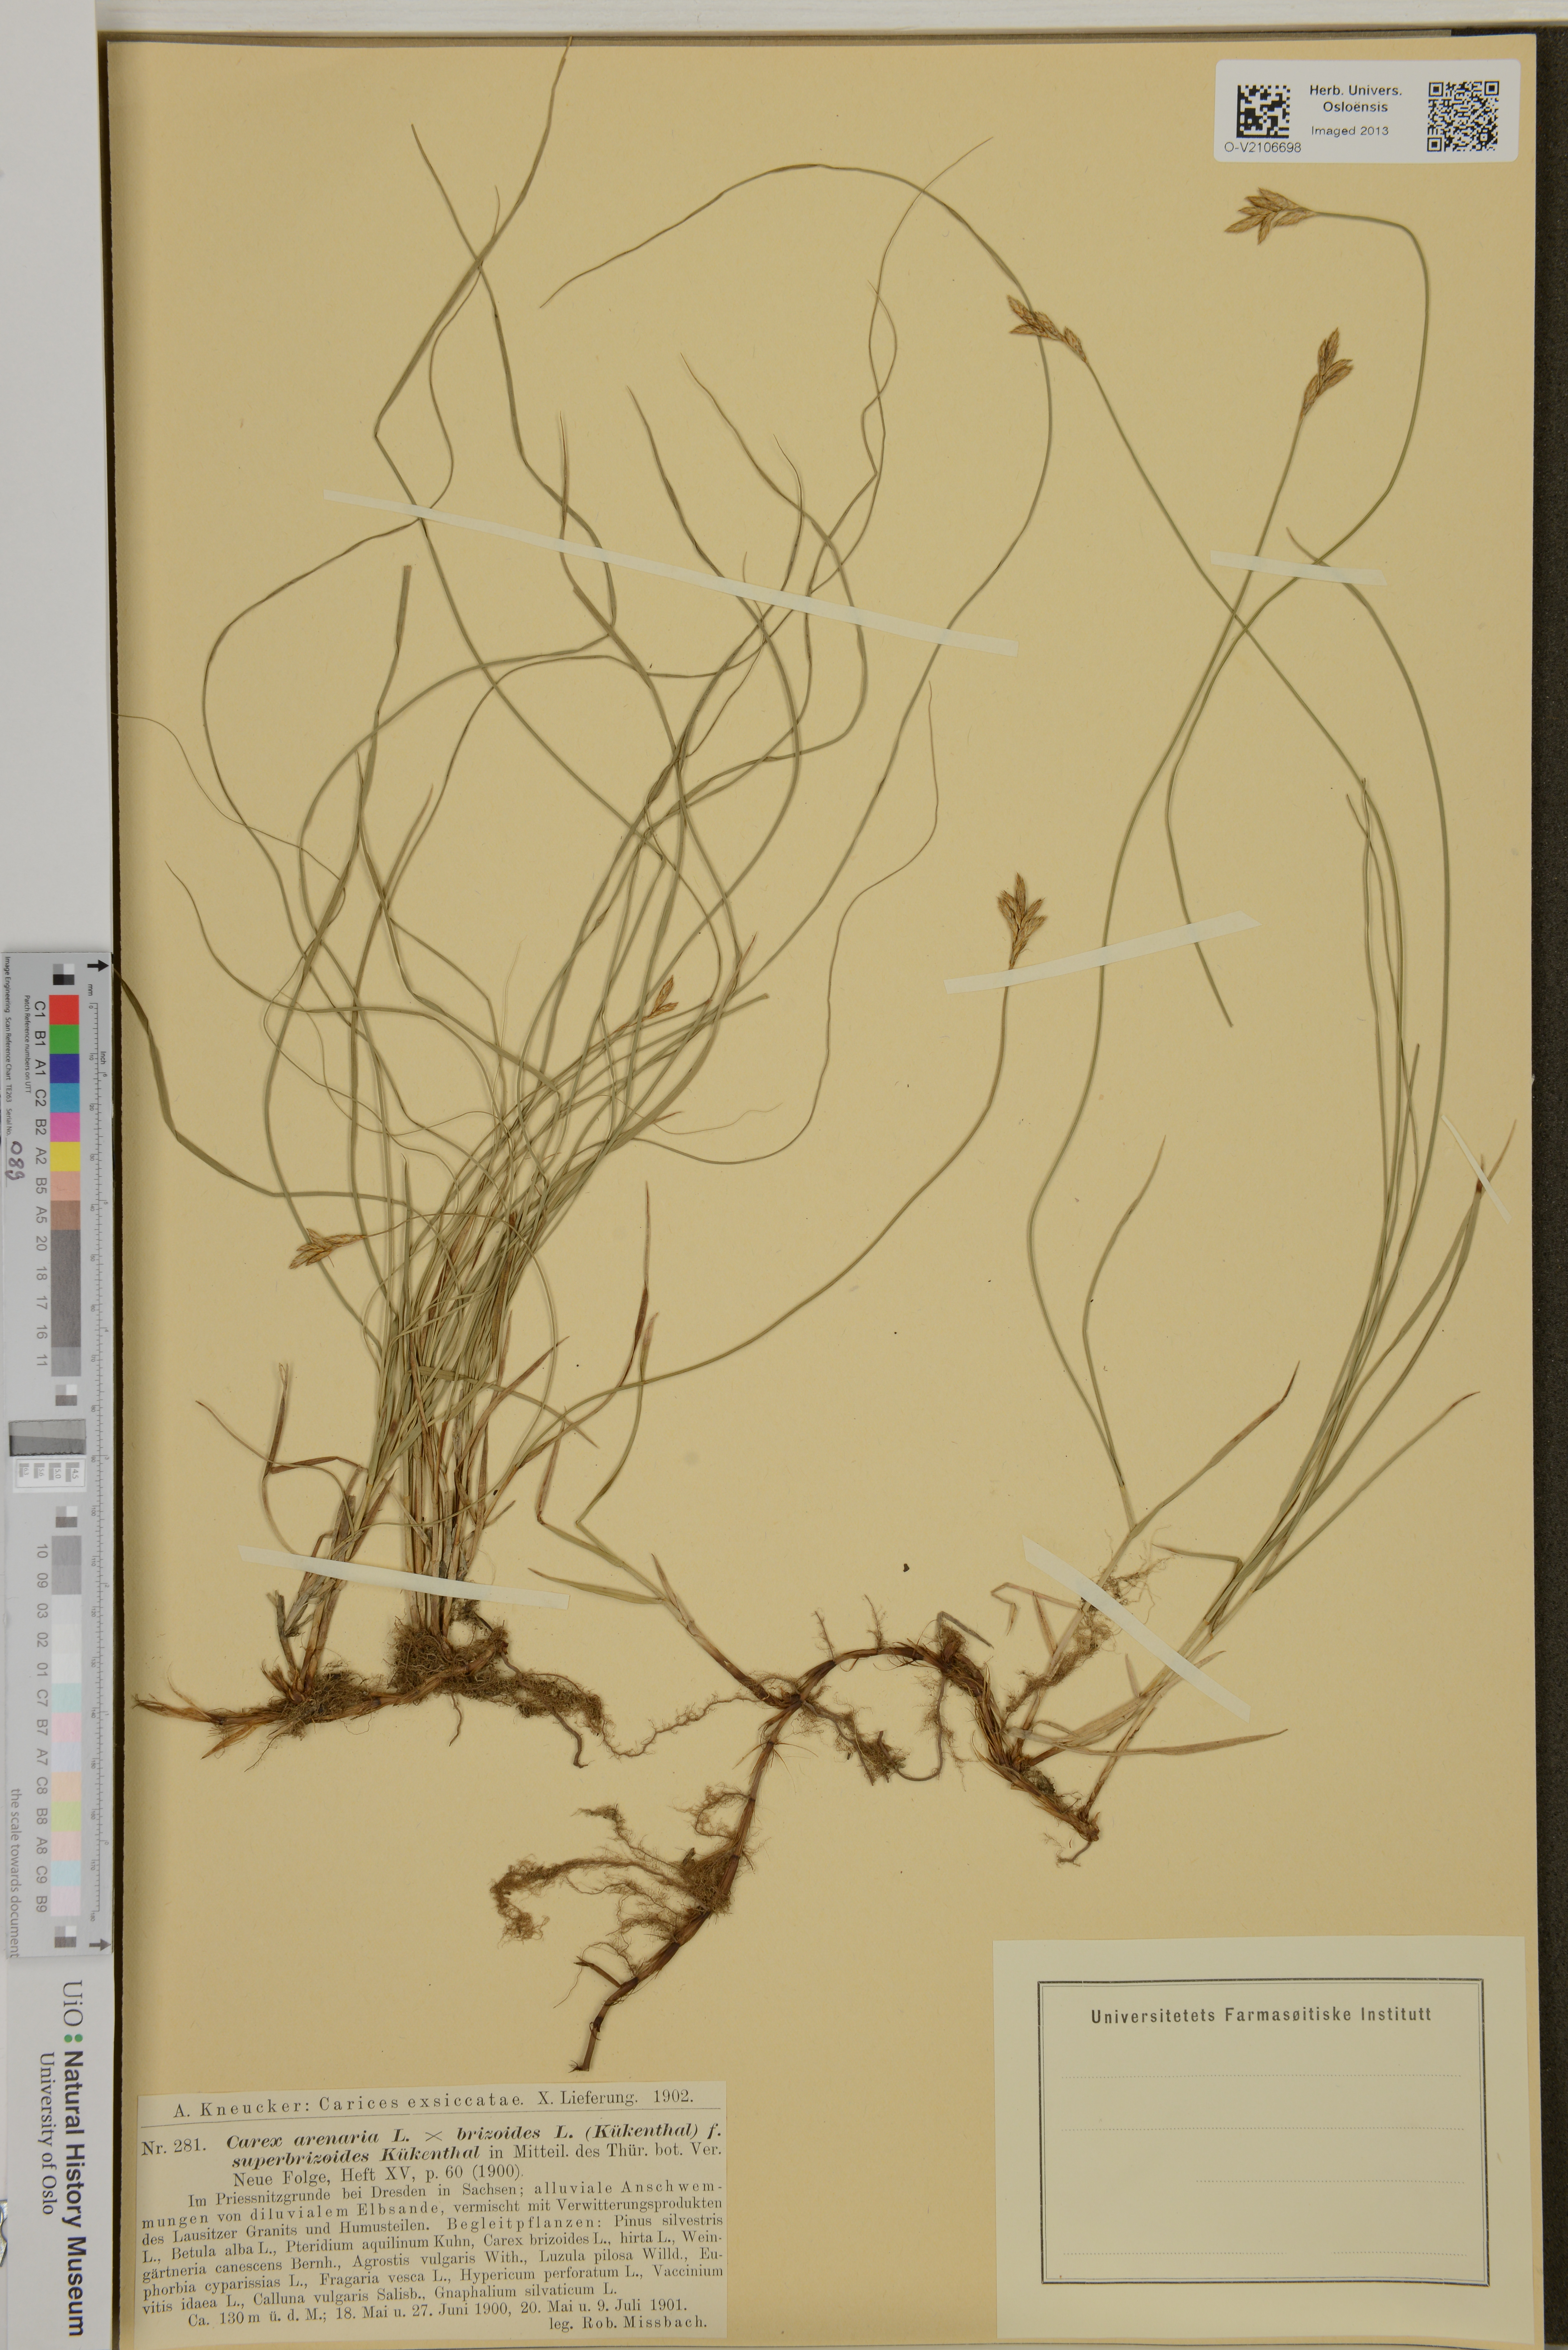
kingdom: Plantae
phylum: Tracheophyta
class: Liliopsida
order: Poales
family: Cyperaceae
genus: Carex
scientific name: Carex
